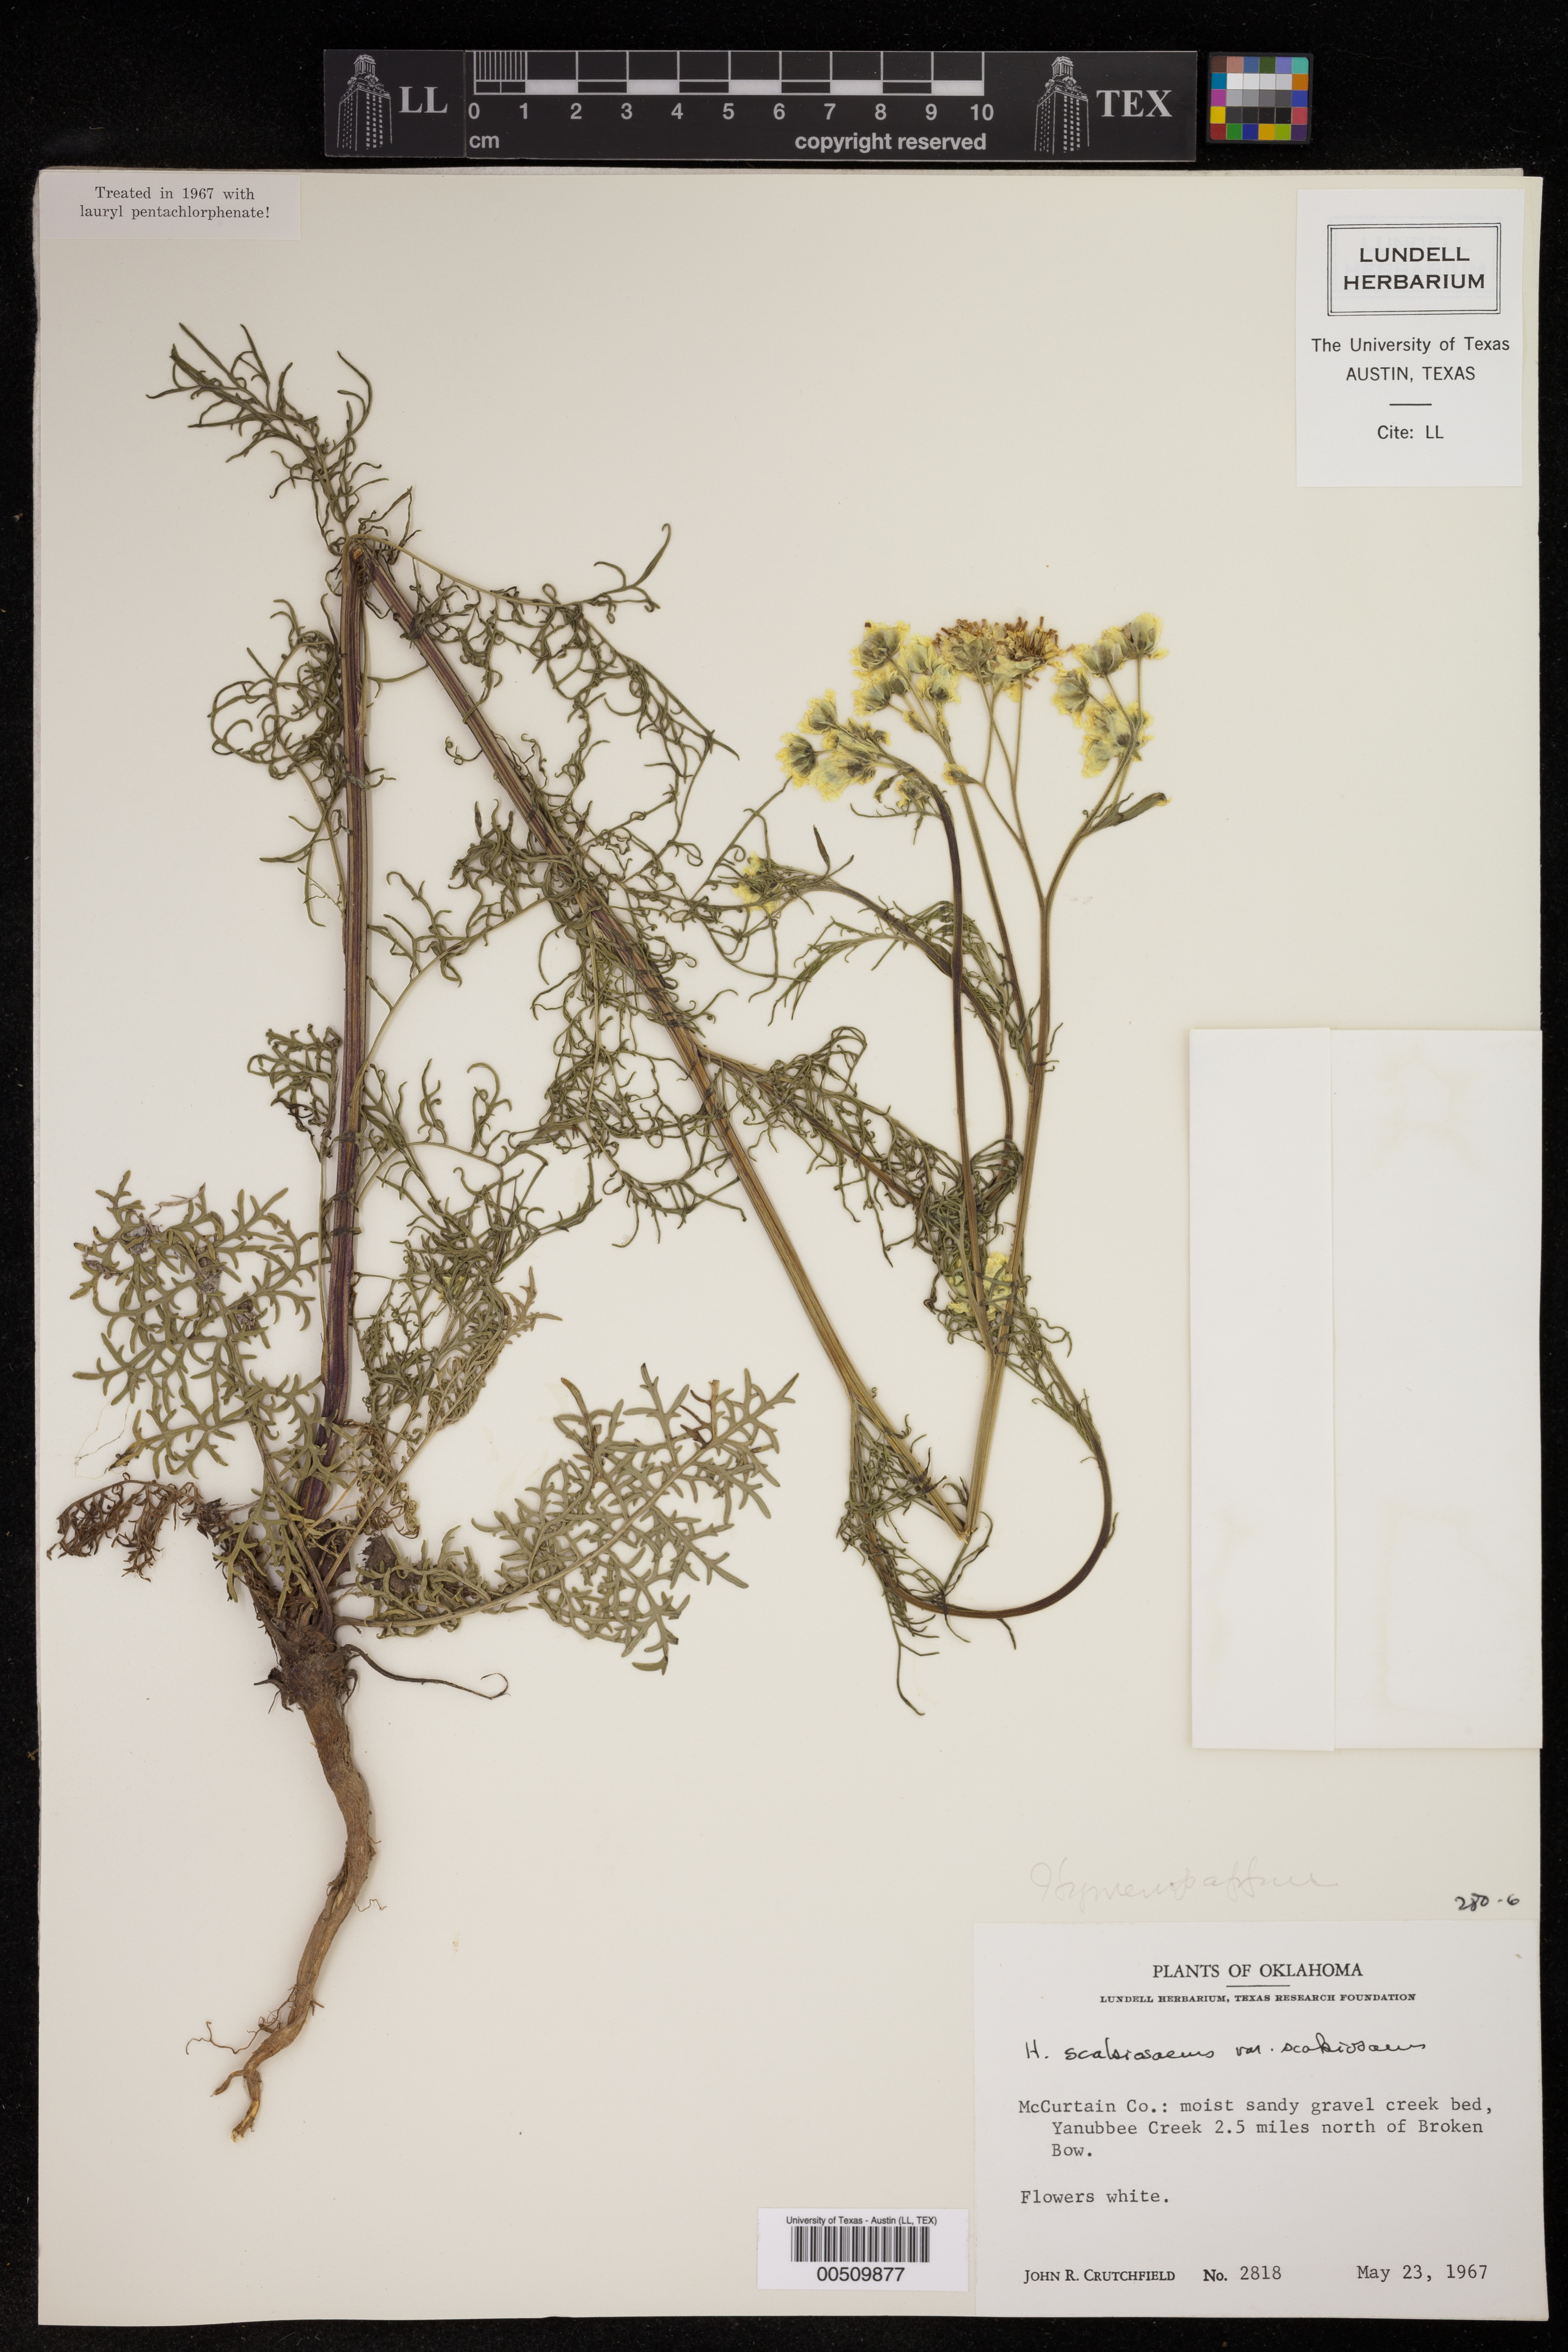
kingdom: Plantae
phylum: Tracheophyta
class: Magnoliopsida
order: Asterales
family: Asteraceae
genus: Hymenopappus
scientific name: Hymenopappus scabiosaeus
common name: Carolina woollywhite
